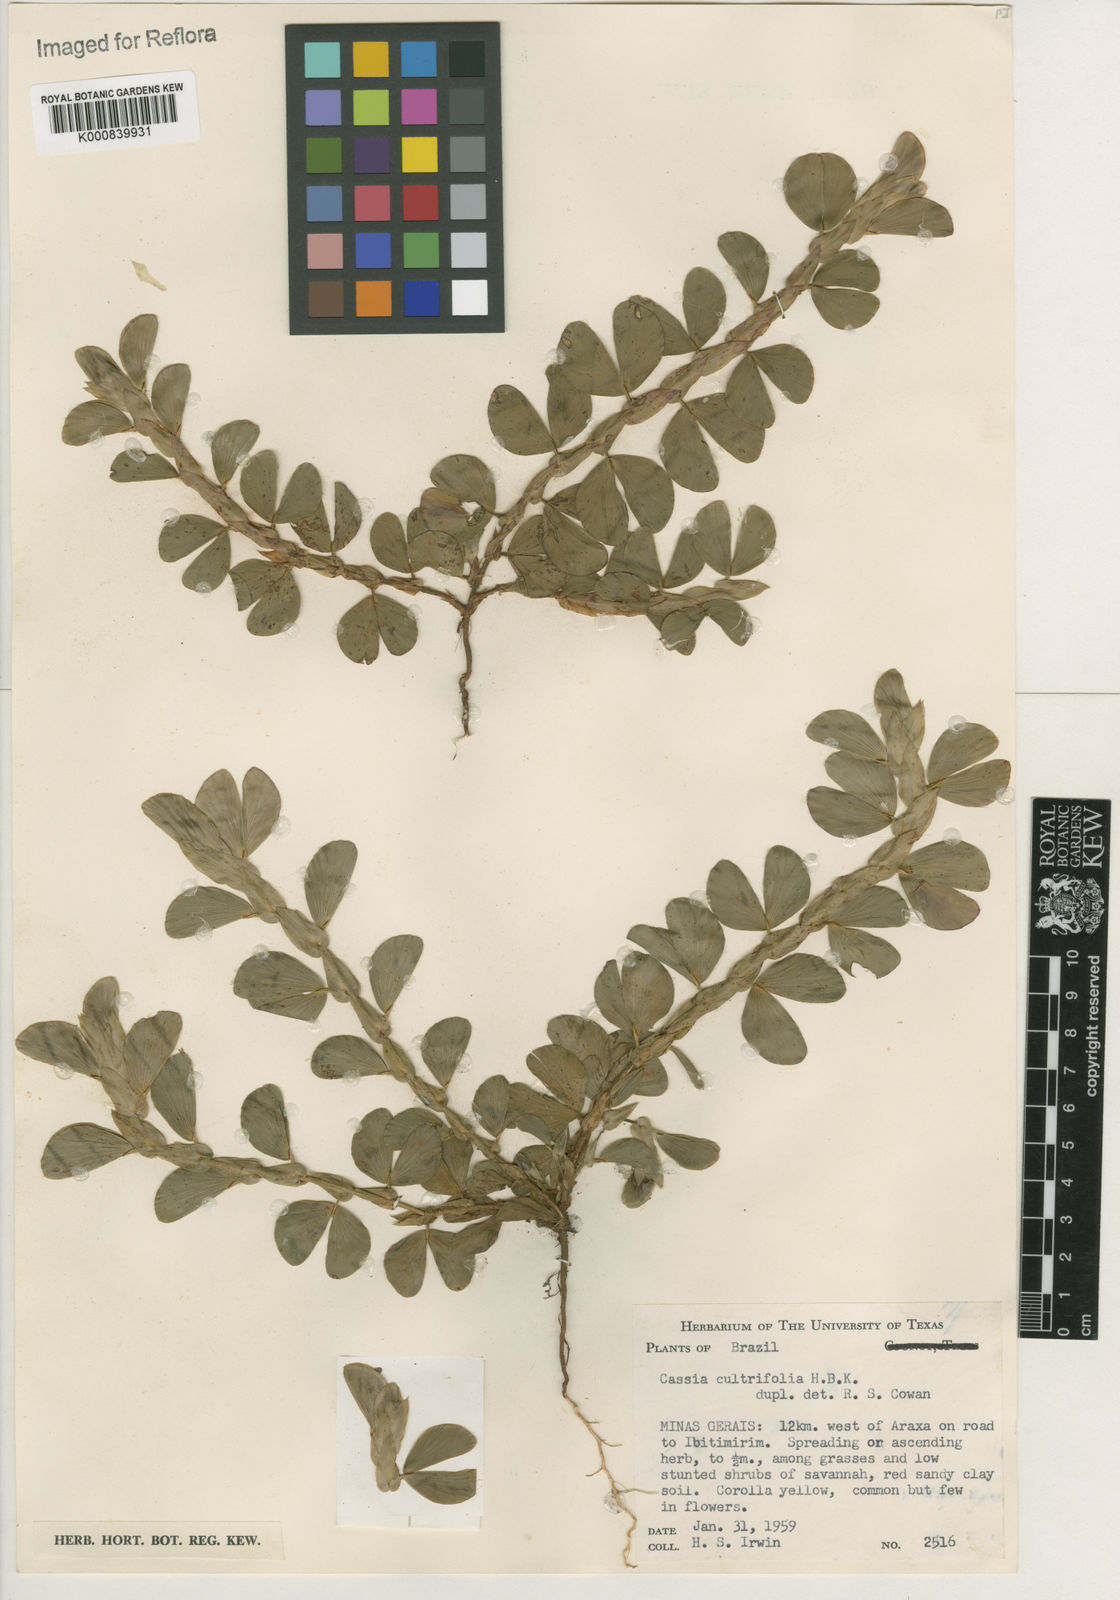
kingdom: Plantae
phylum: Tracheophyta
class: Magnoliopsida
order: Fabales
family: Fabaceae
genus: Chamaecrista
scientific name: Chamaecrista diphylla
